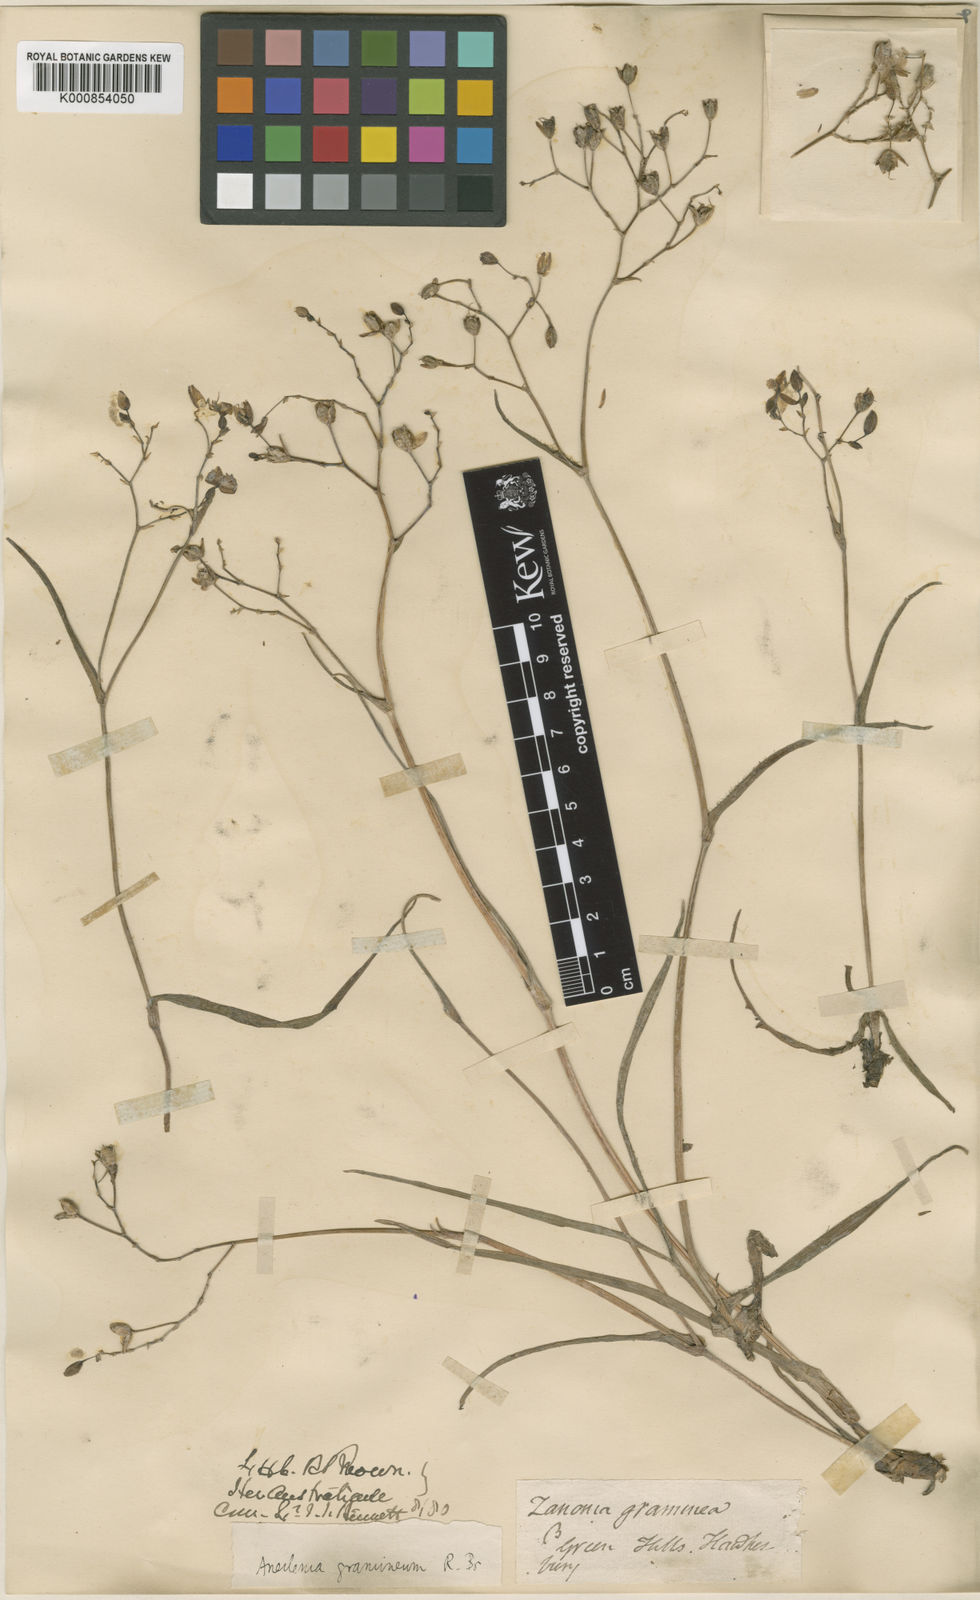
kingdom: Plantae
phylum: Tracheophyta
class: Liliopsida
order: Commelinales
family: Commelinaceae
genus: Murdannia
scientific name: Murdannia
